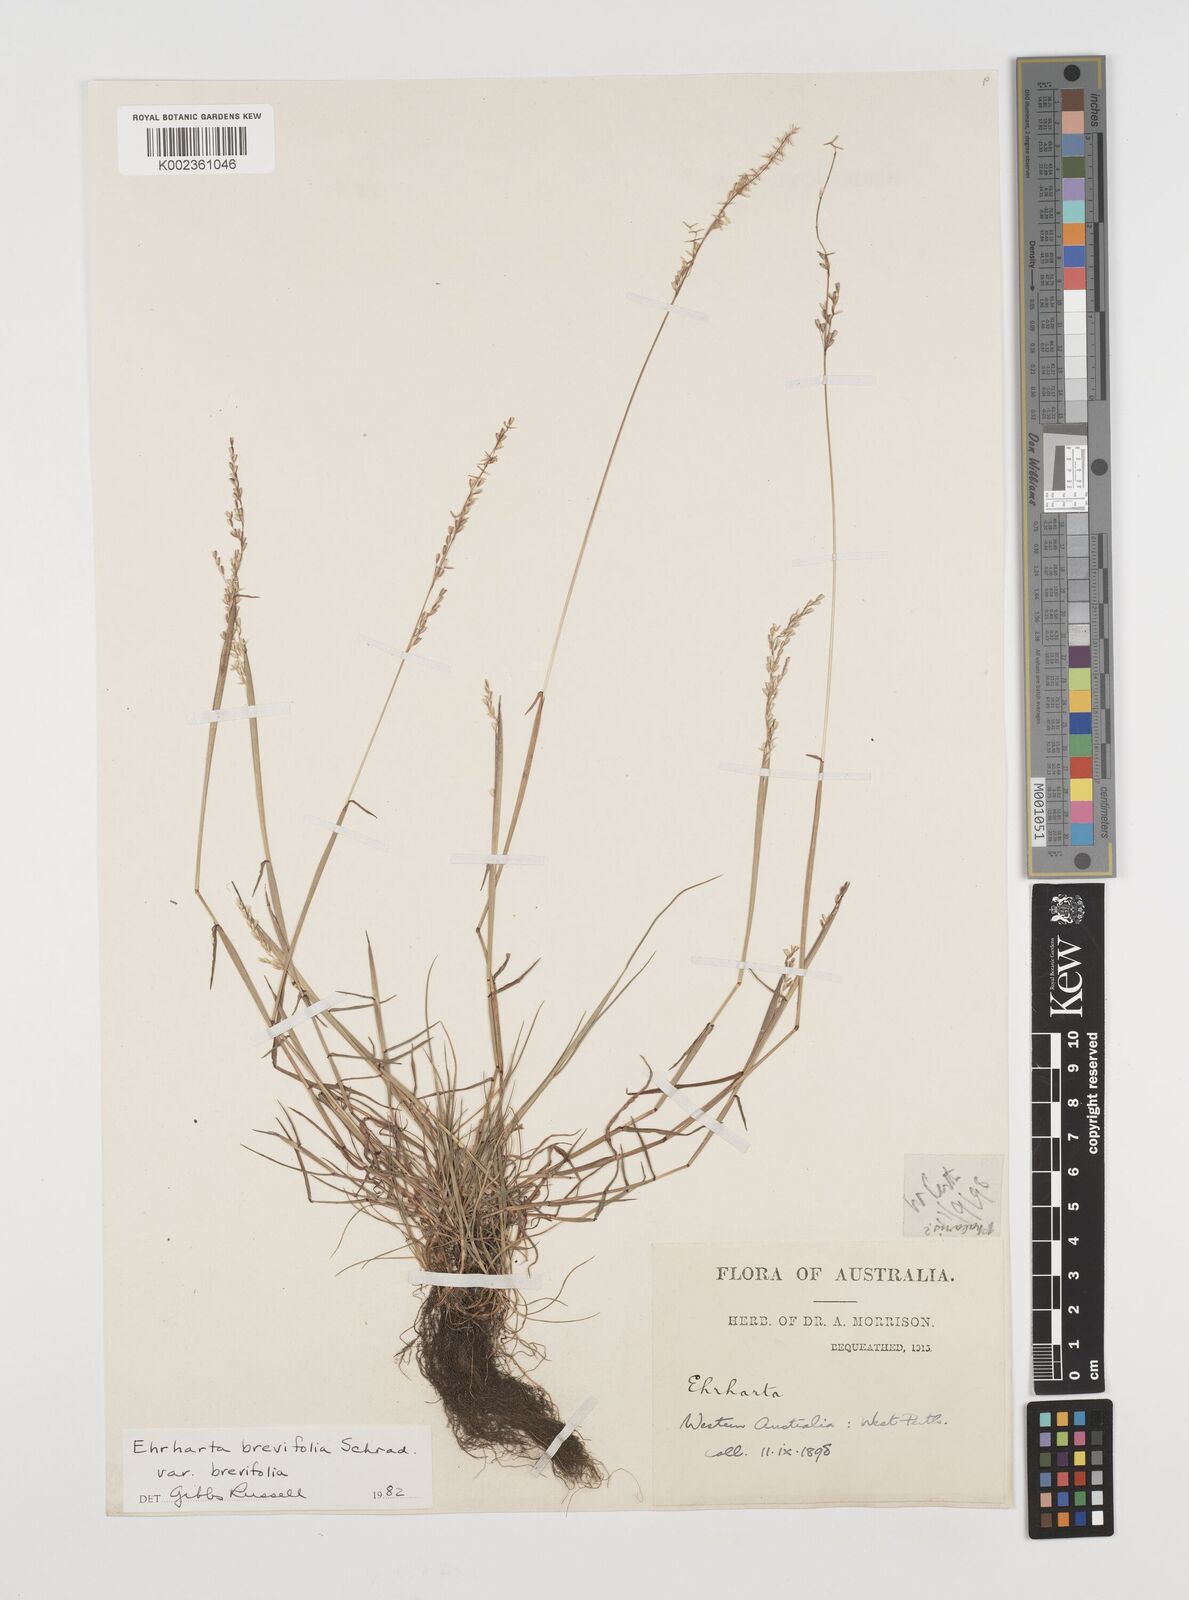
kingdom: Plantae
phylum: Tracheophyta
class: Liliopsida
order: Poales
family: Poaceae
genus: Ehrharta
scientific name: Ehrharta brevifolia
